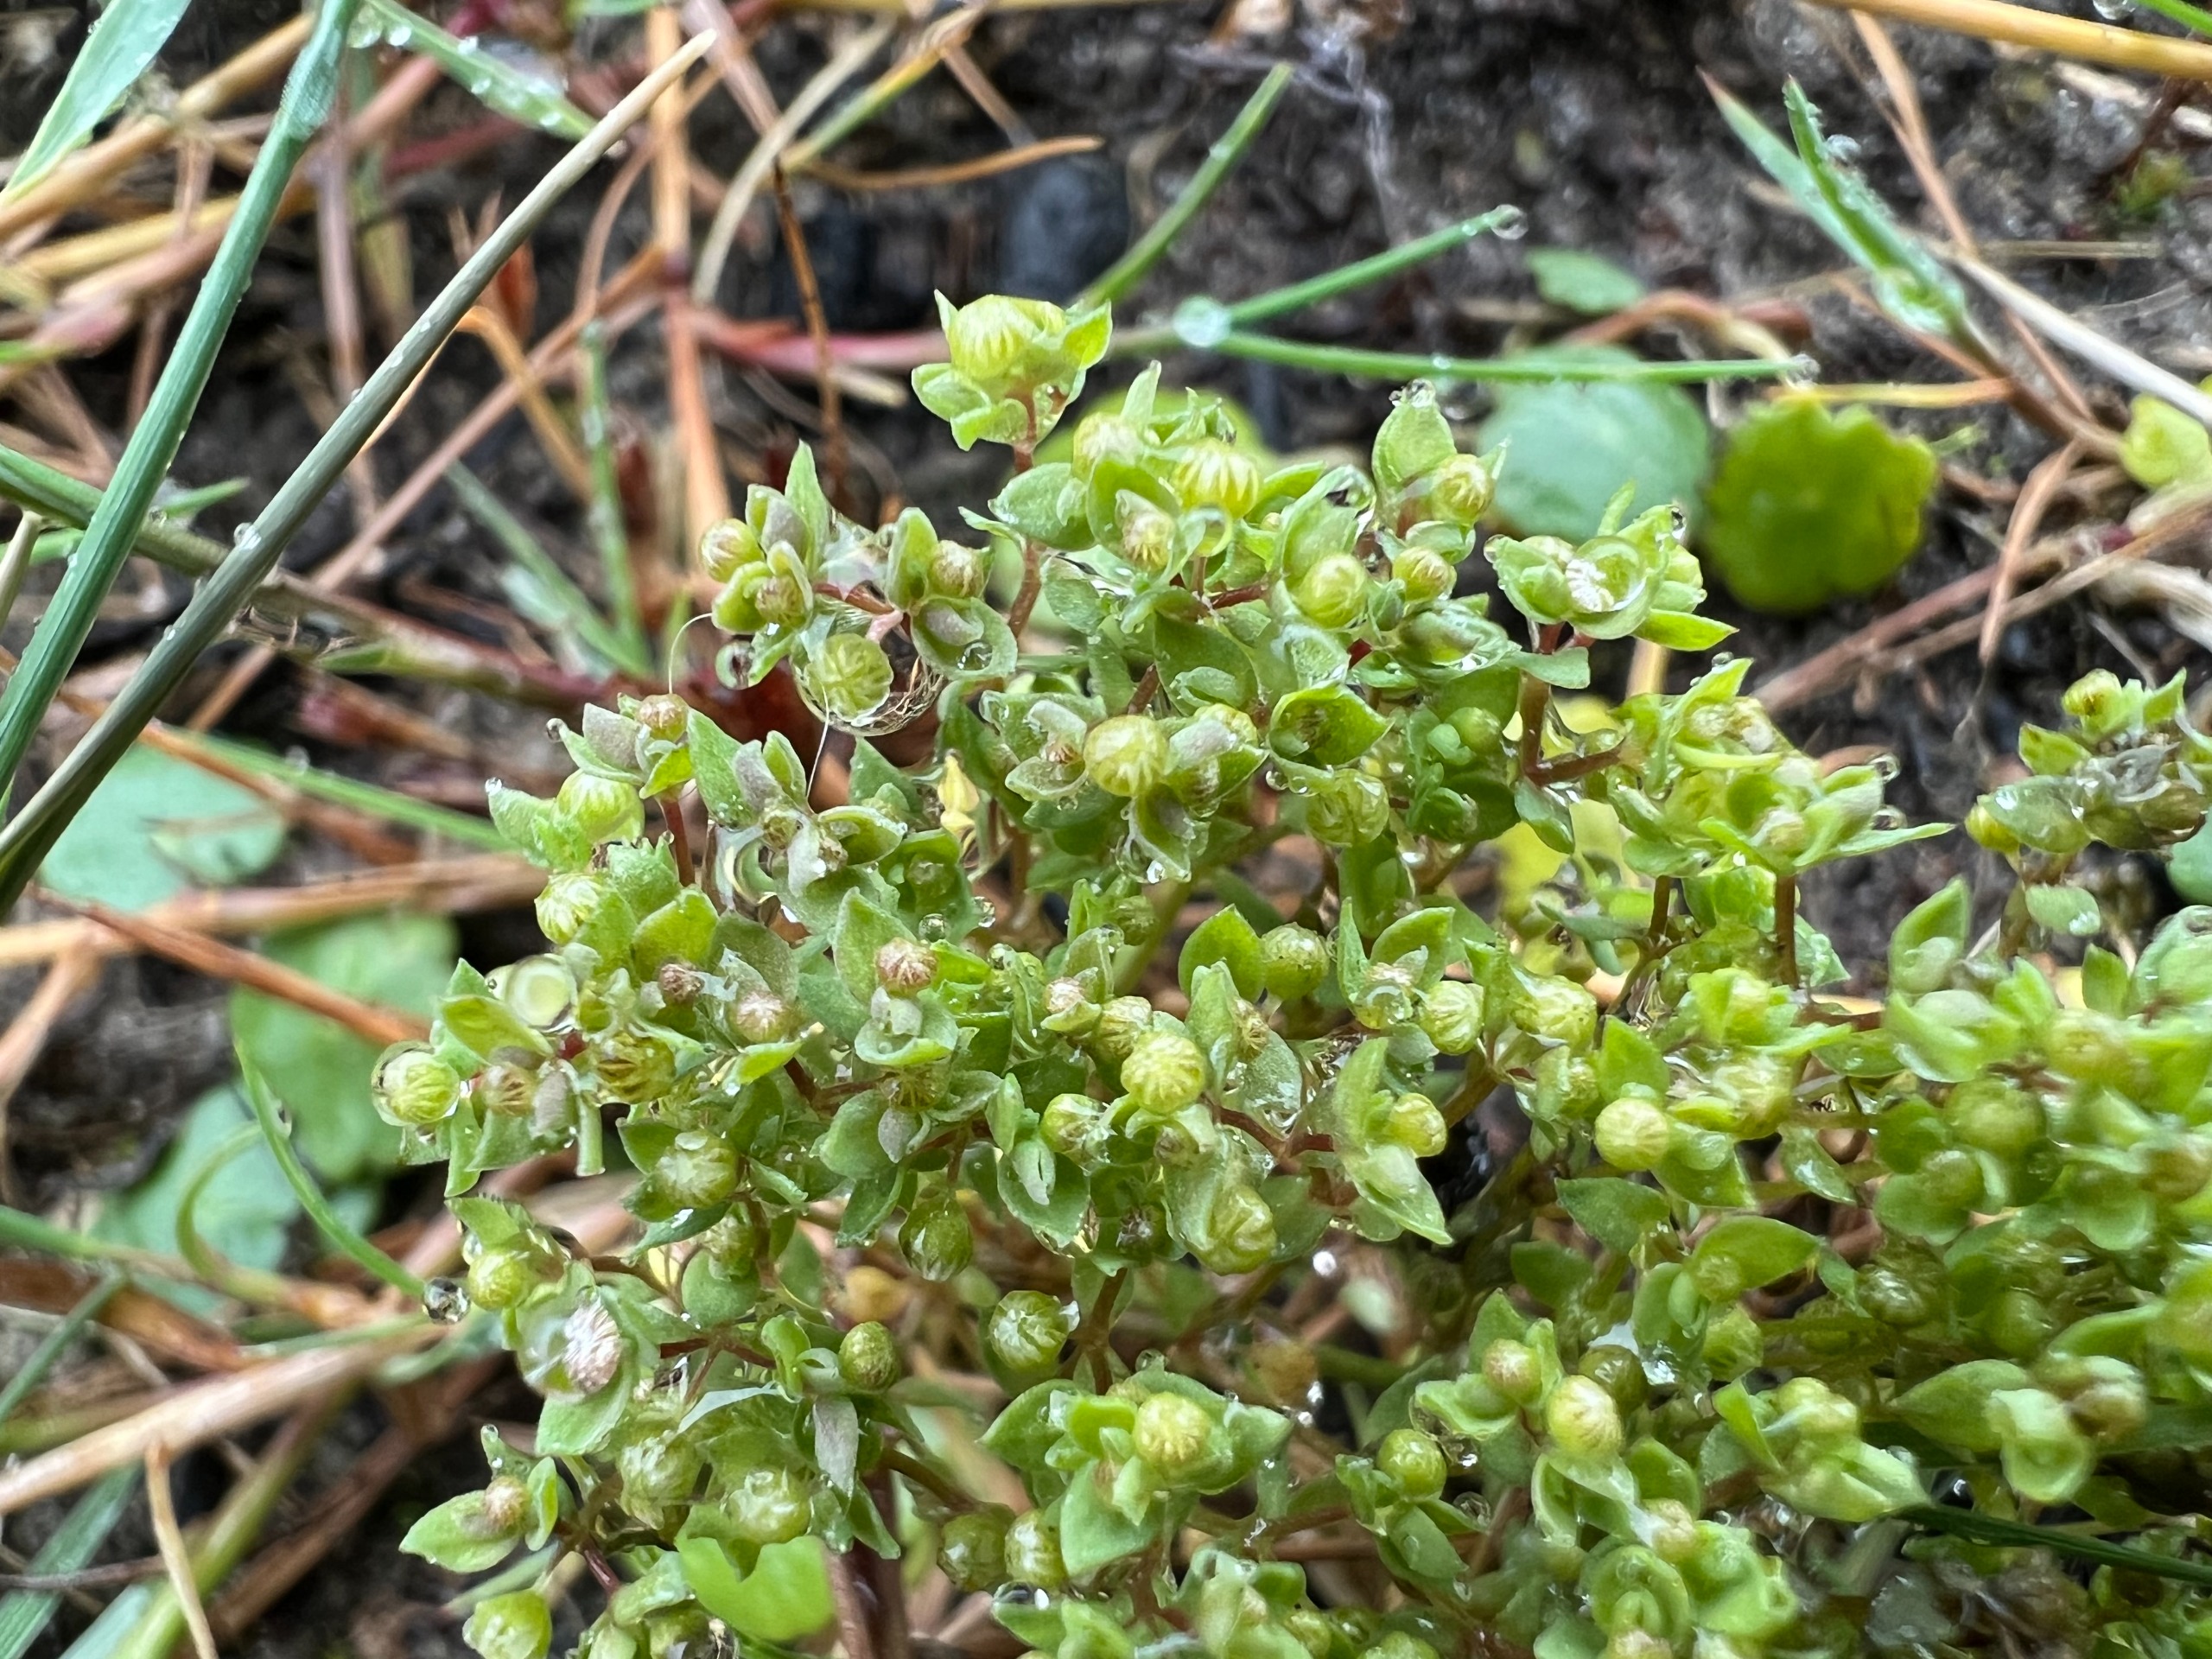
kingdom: Plantae
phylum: Tracheophyta
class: Magnoliopsida
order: Malpighiales
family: Linaceae
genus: Radiola
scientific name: Radiola linoides
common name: Tusindfrø
